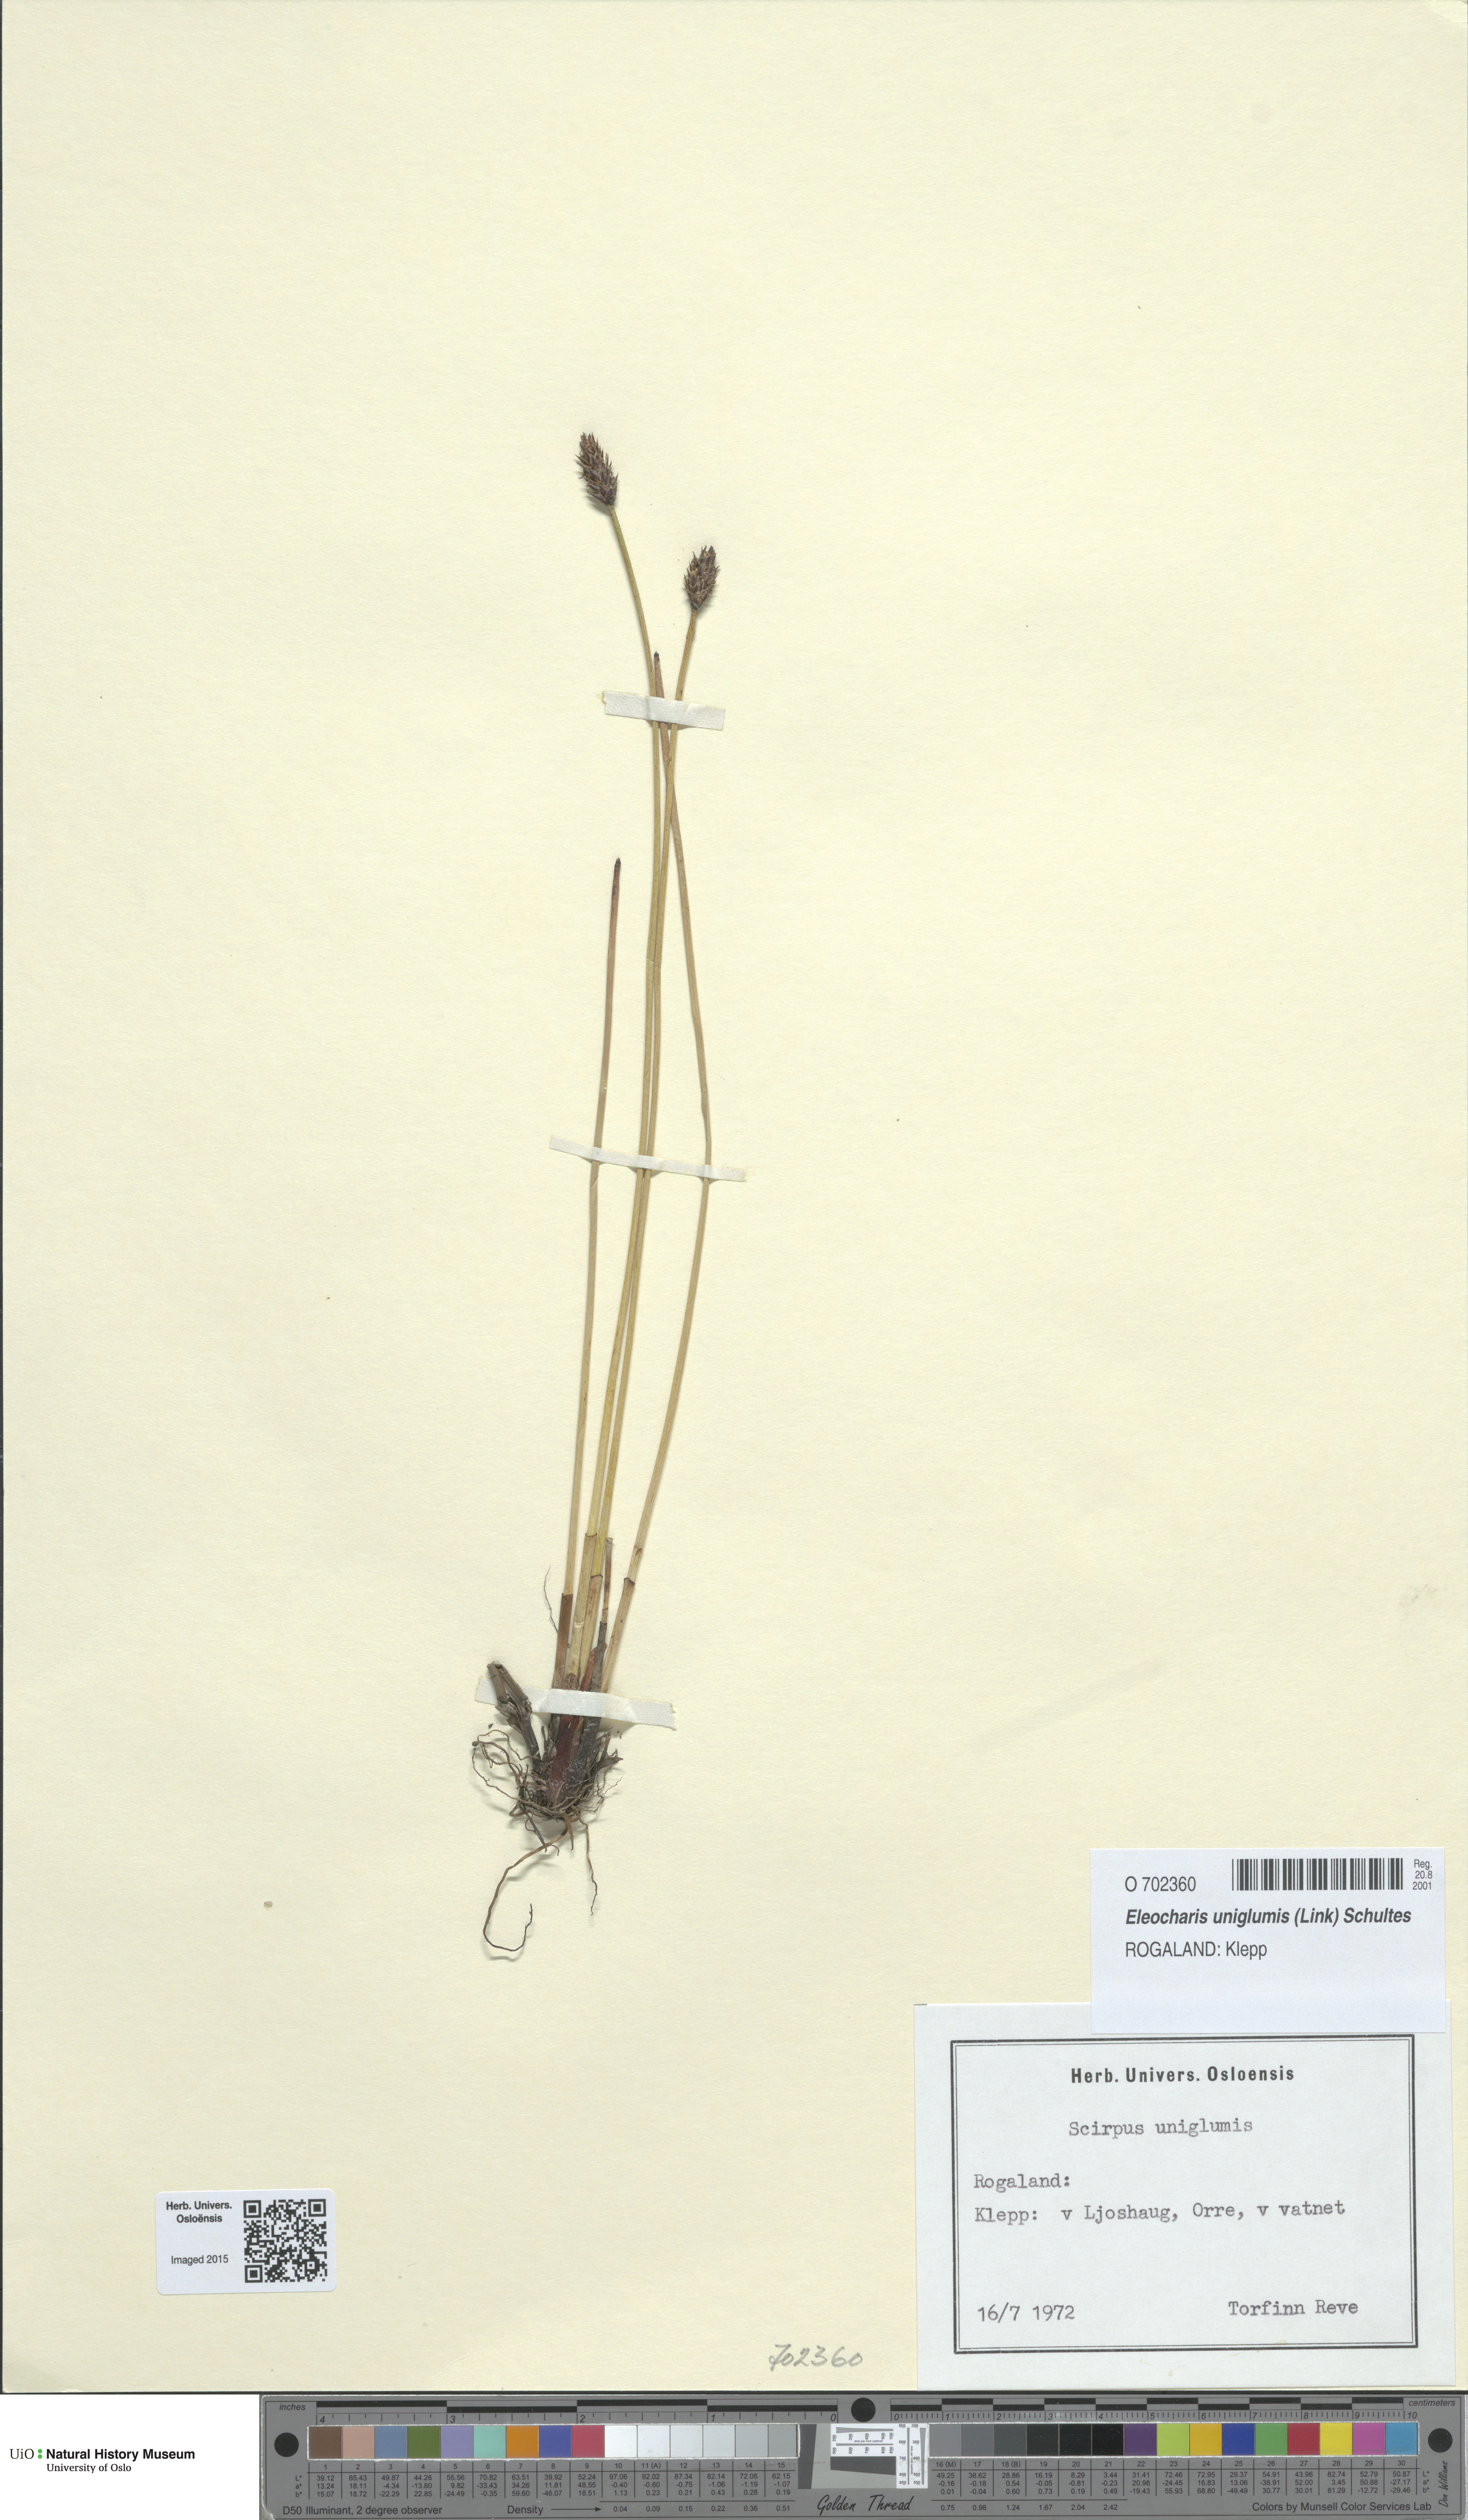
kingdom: Plantae
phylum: Tracheophyta
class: Liliopsida
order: Poales
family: Cyperaceae
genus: Eleocharis
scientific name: Eleocharis uniglumis
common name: Slender spike-rush
